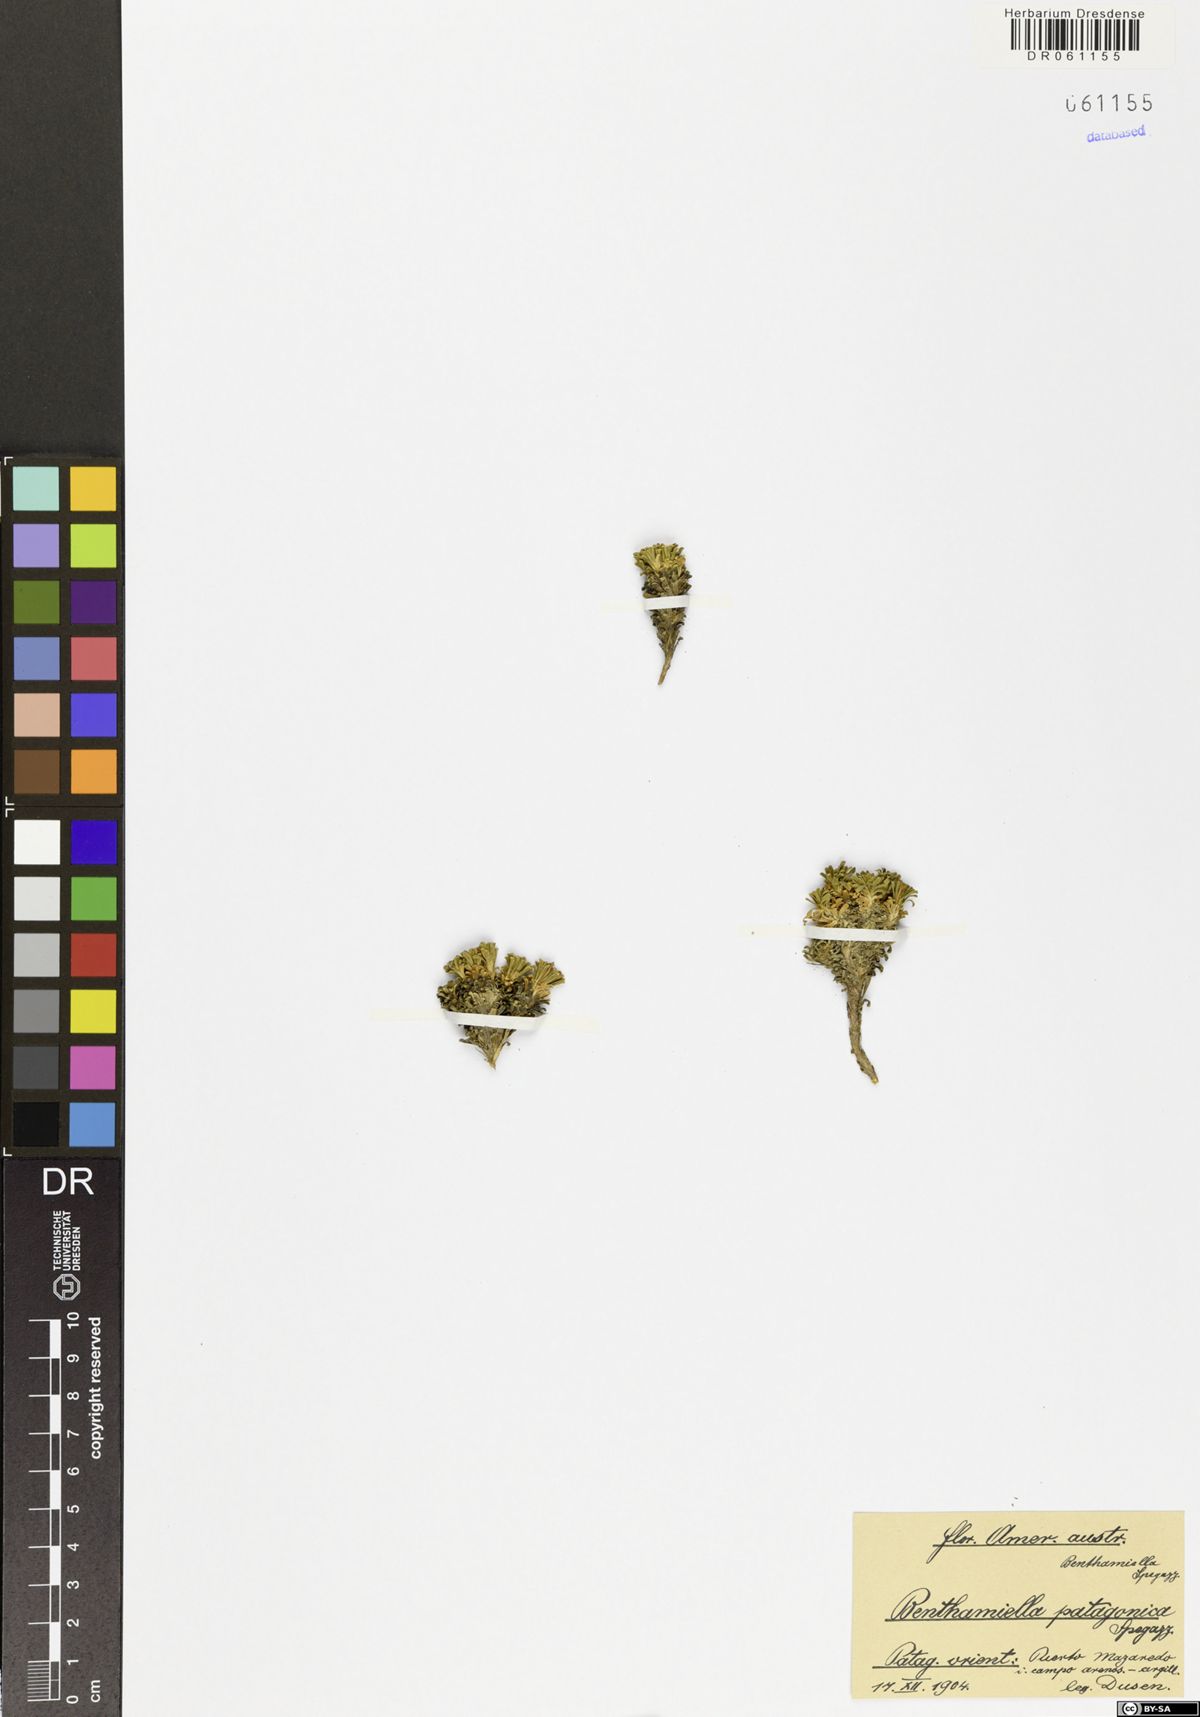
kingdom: Plantae
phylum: Tracheophyta
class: Magnoliopsida
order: Solanales
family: Solanaceae
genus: Benthamiella
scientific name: Benthamiella patagonica
